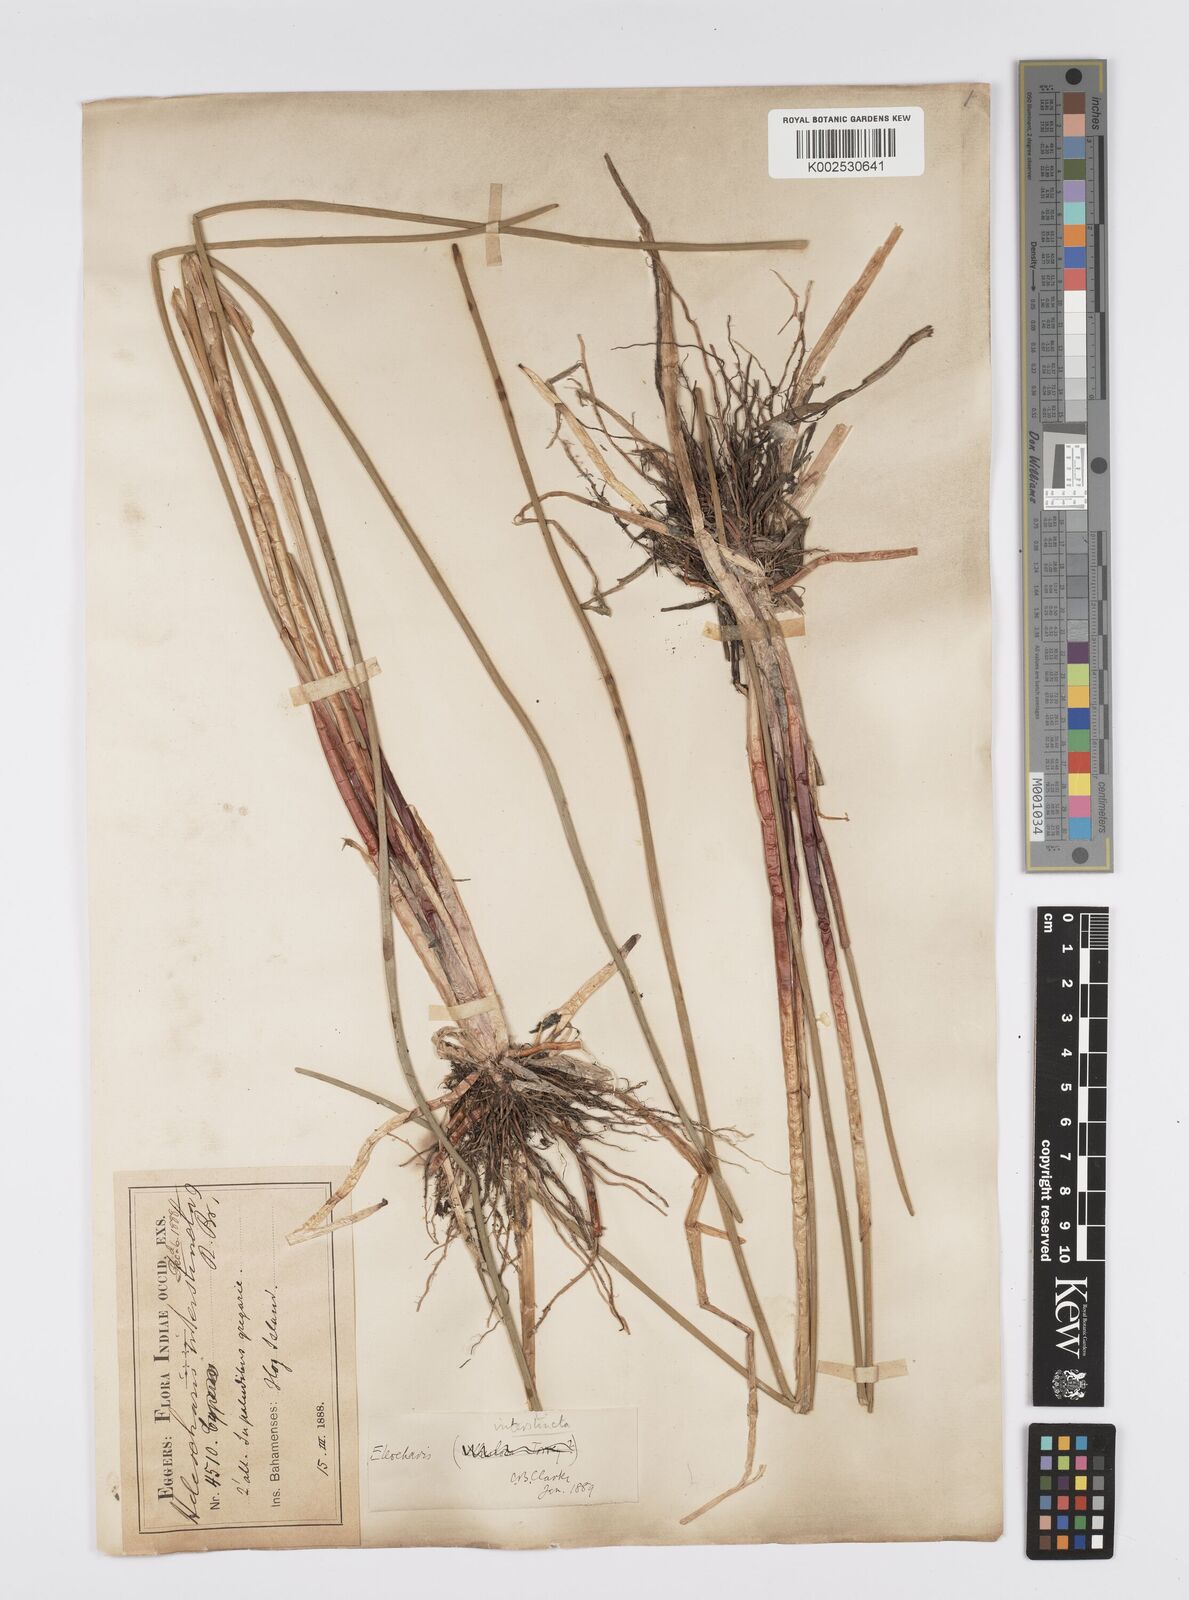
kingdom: Plantae
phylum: Tracheophyta
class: Liliopsida
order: Poales
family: Cyperaceae
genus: Eleocharis
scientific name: Eleocharis interstincta
